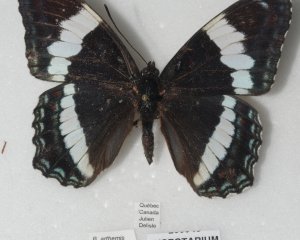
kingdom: Animalia
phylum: Arthropoda
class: Insecta
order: Lepidoptera
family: Nymphalidae
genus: Limenitis
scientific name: Limenitis arthemis
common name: Red-spotted Admiral
